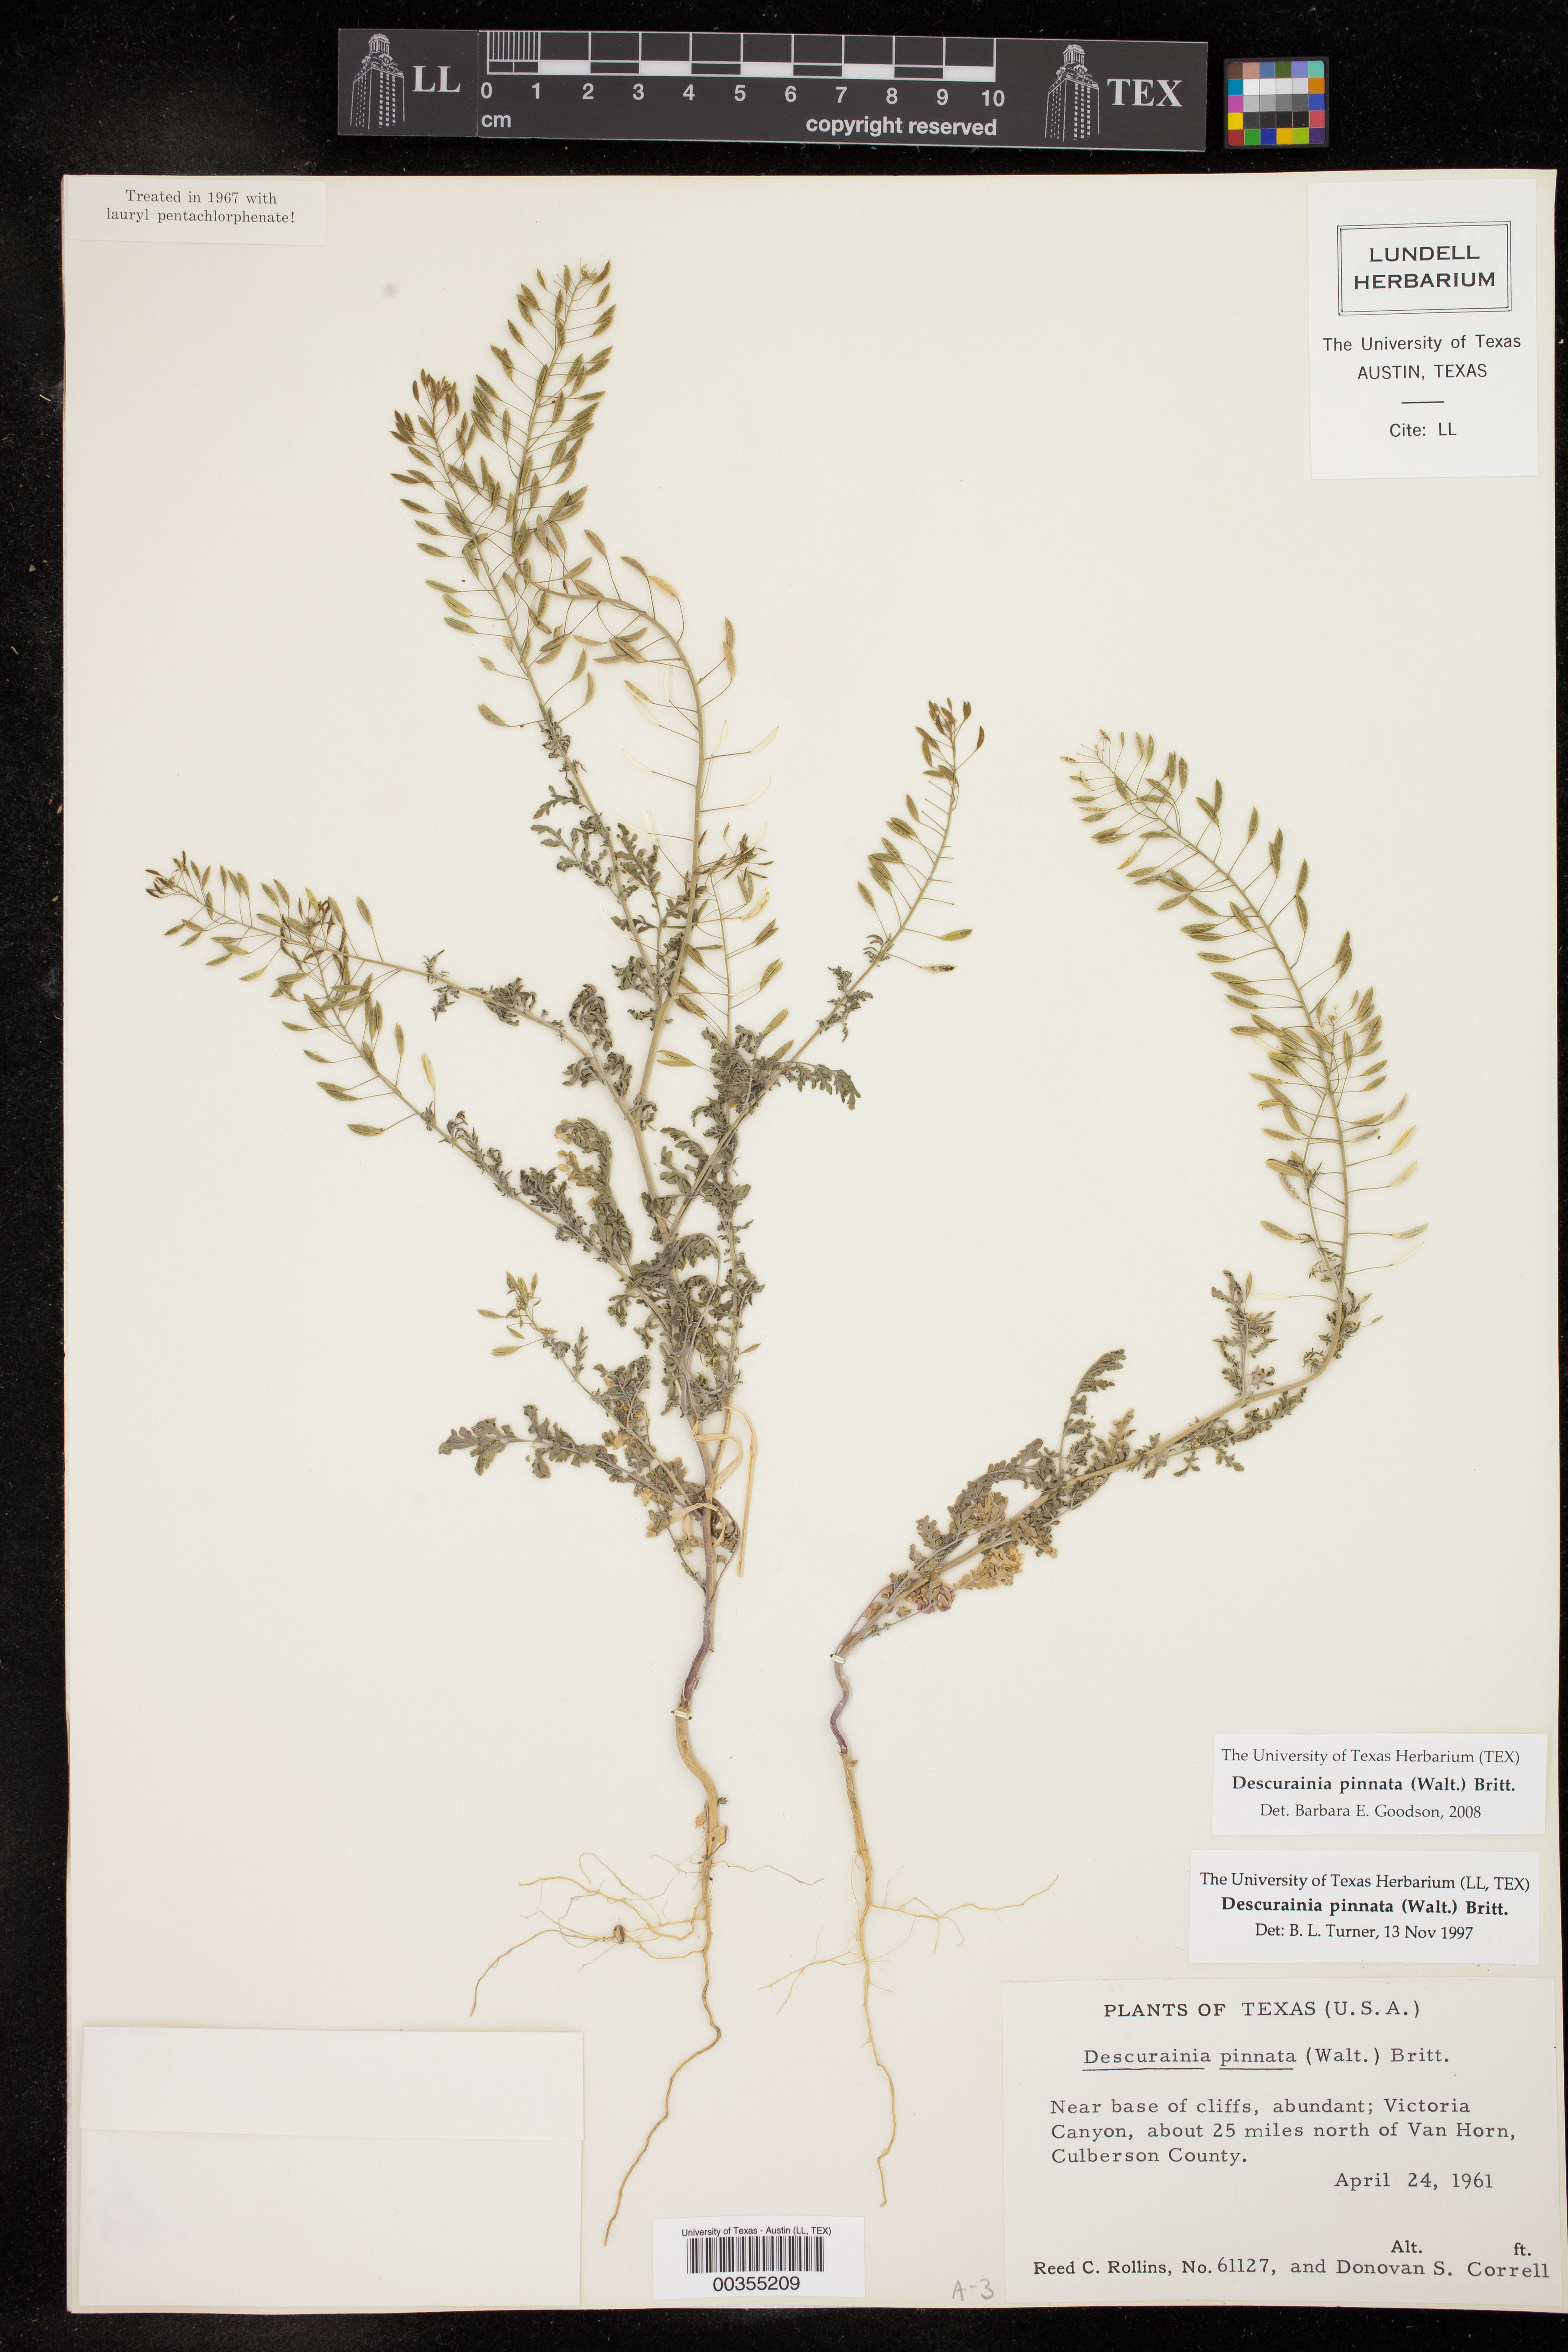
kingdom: Plantae
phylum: Tracheophyta
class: Magnoliopsida
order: Brassicales
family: Brassicaceae
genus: Descurainia
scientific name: Descurainia pinnata
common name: Western tansy mustard
